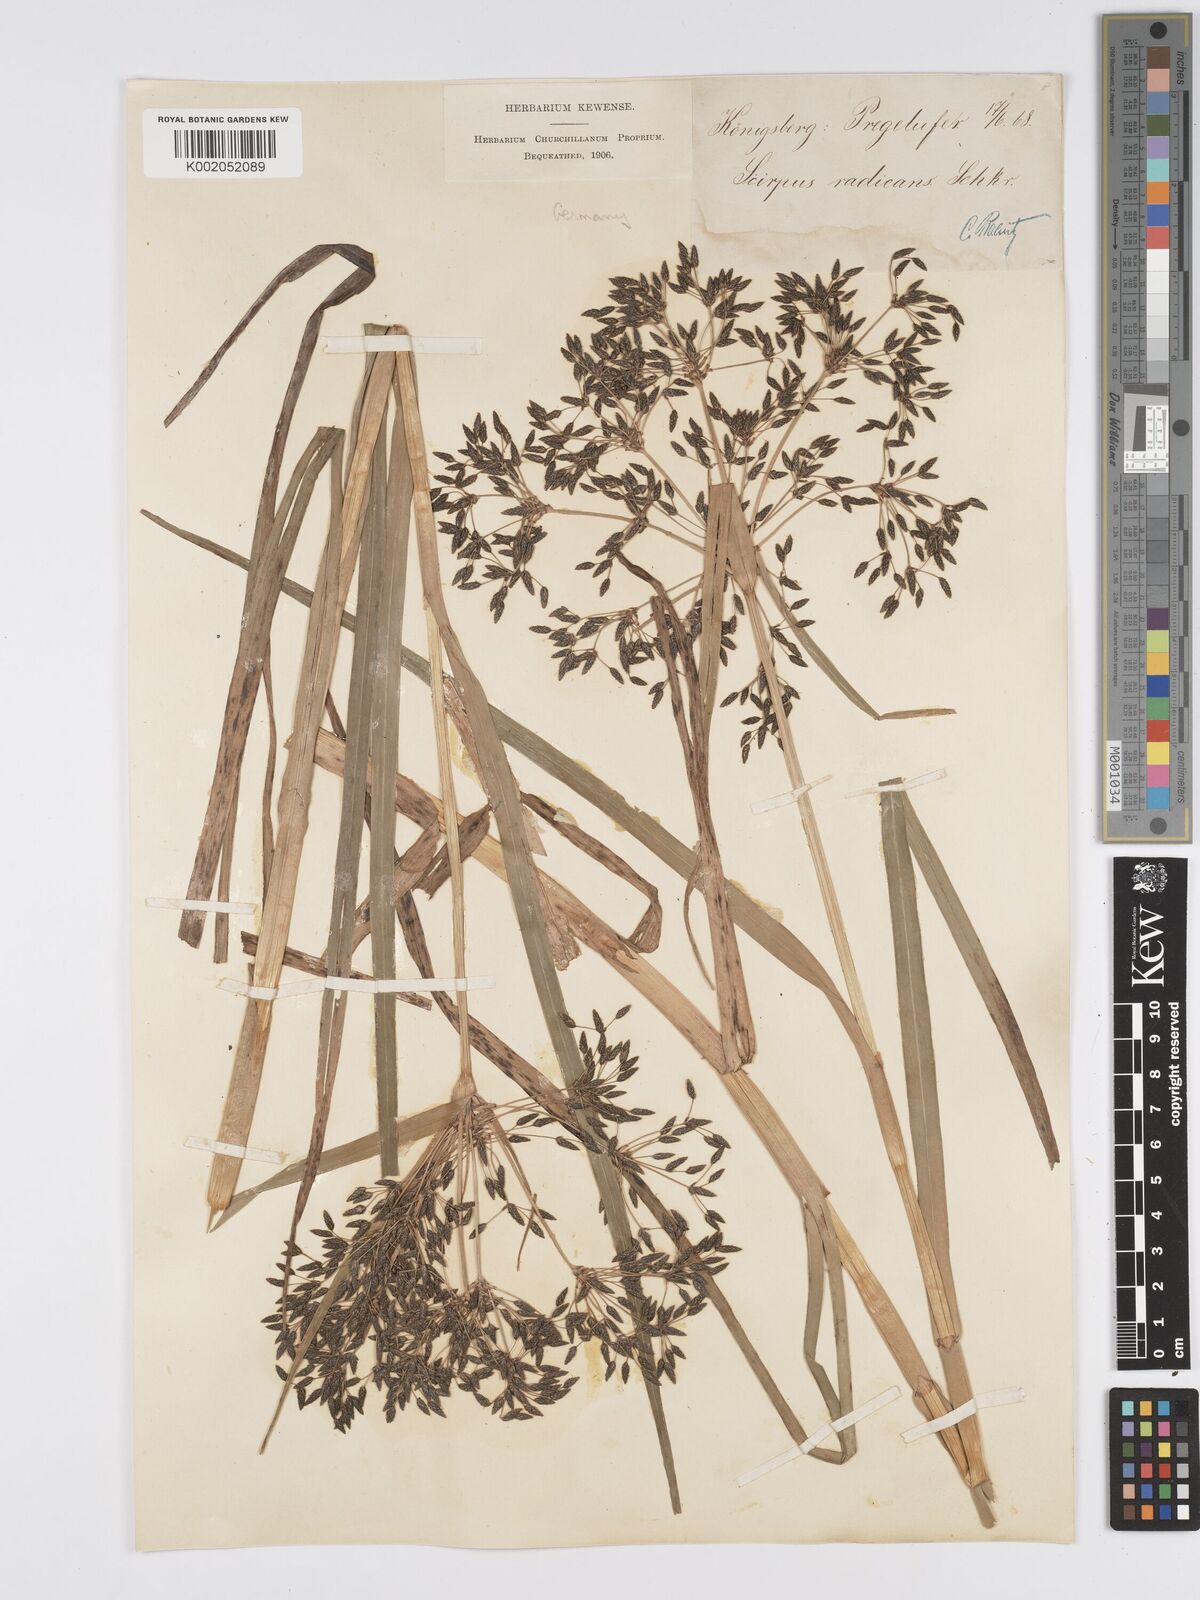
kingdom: Plantae
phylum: Tracheophyta
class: Liliopsida
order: Poales
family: Cyperaceae
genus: Scirpus
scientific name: Scirpus radicans
